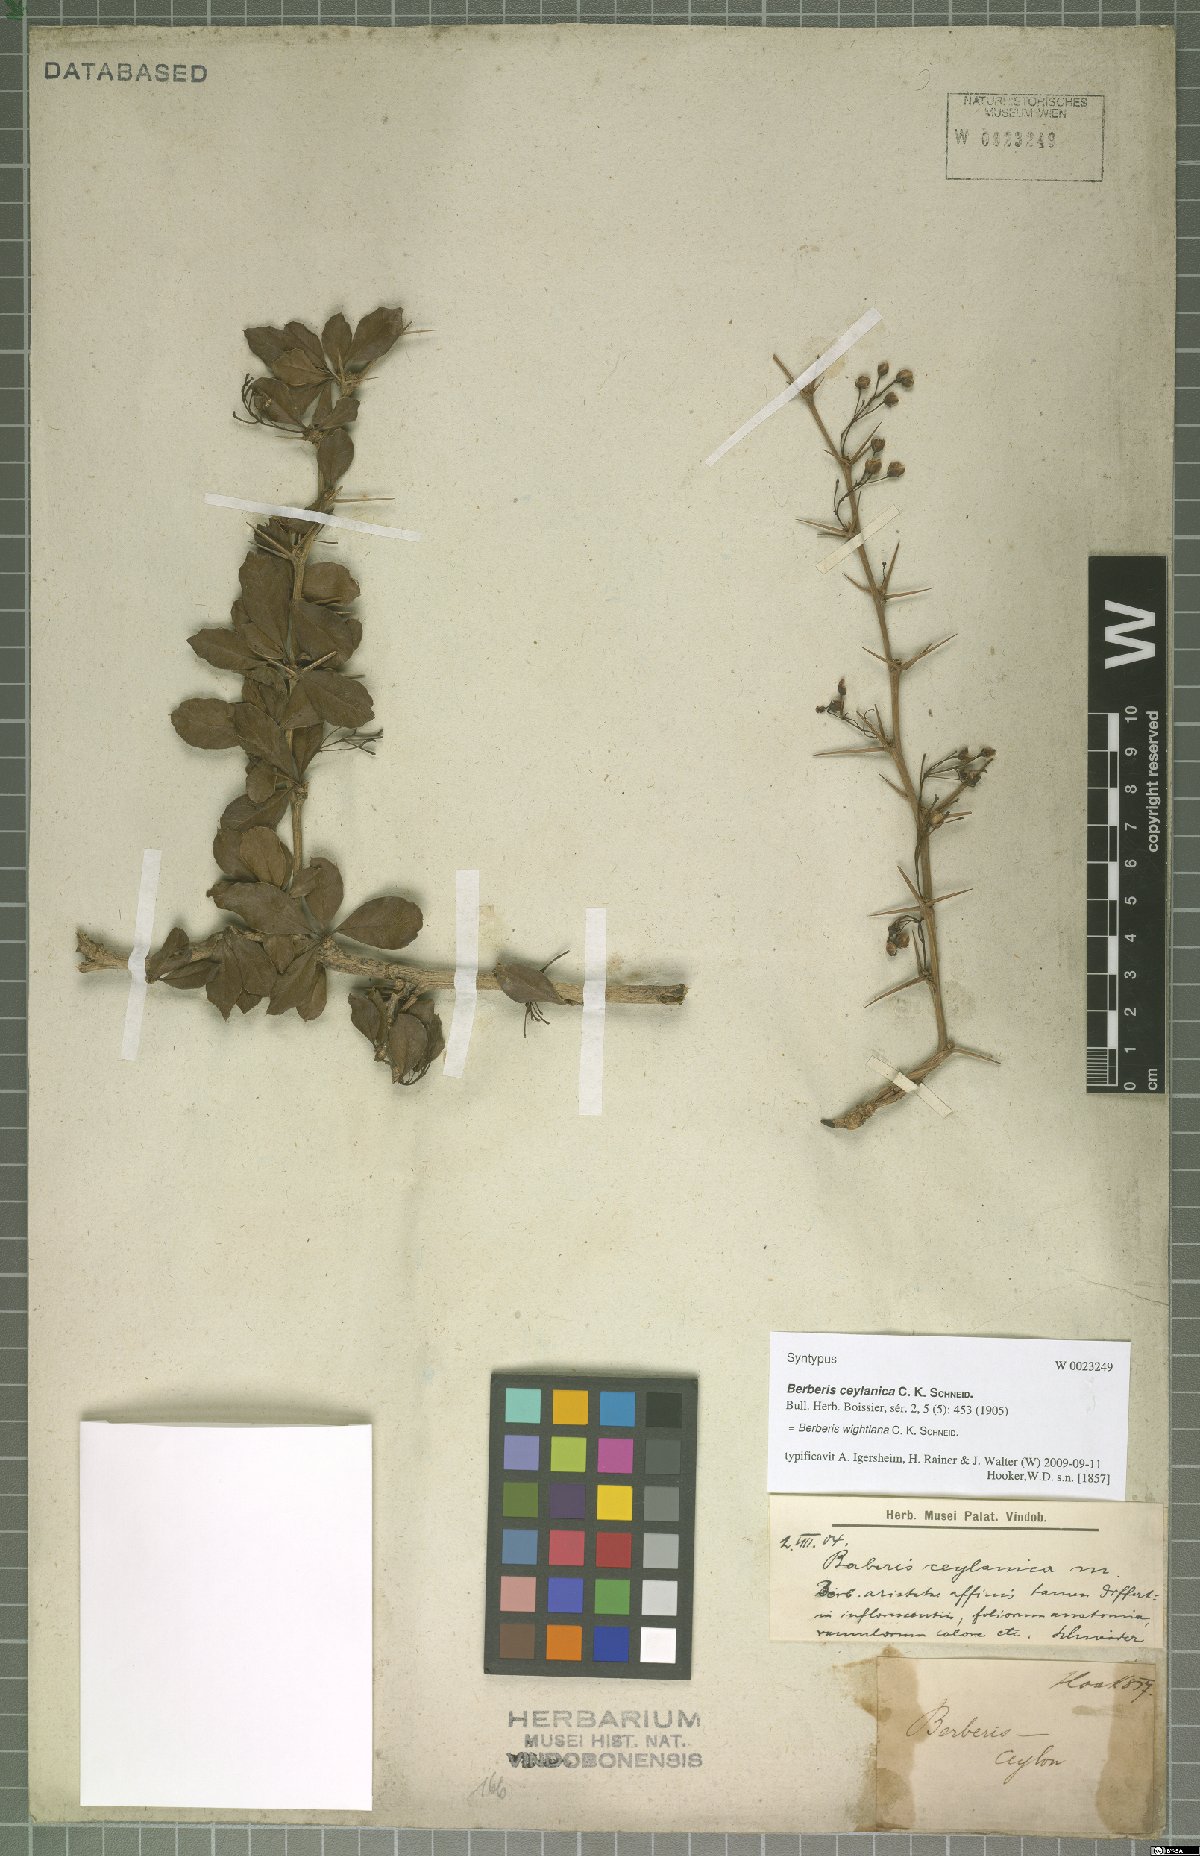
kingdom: Plantae
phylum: Tracheophyta
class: Magnoliopsida
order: Ranunculales
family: Berberidaceae
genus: Berberis
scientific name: Berberis wightiana
